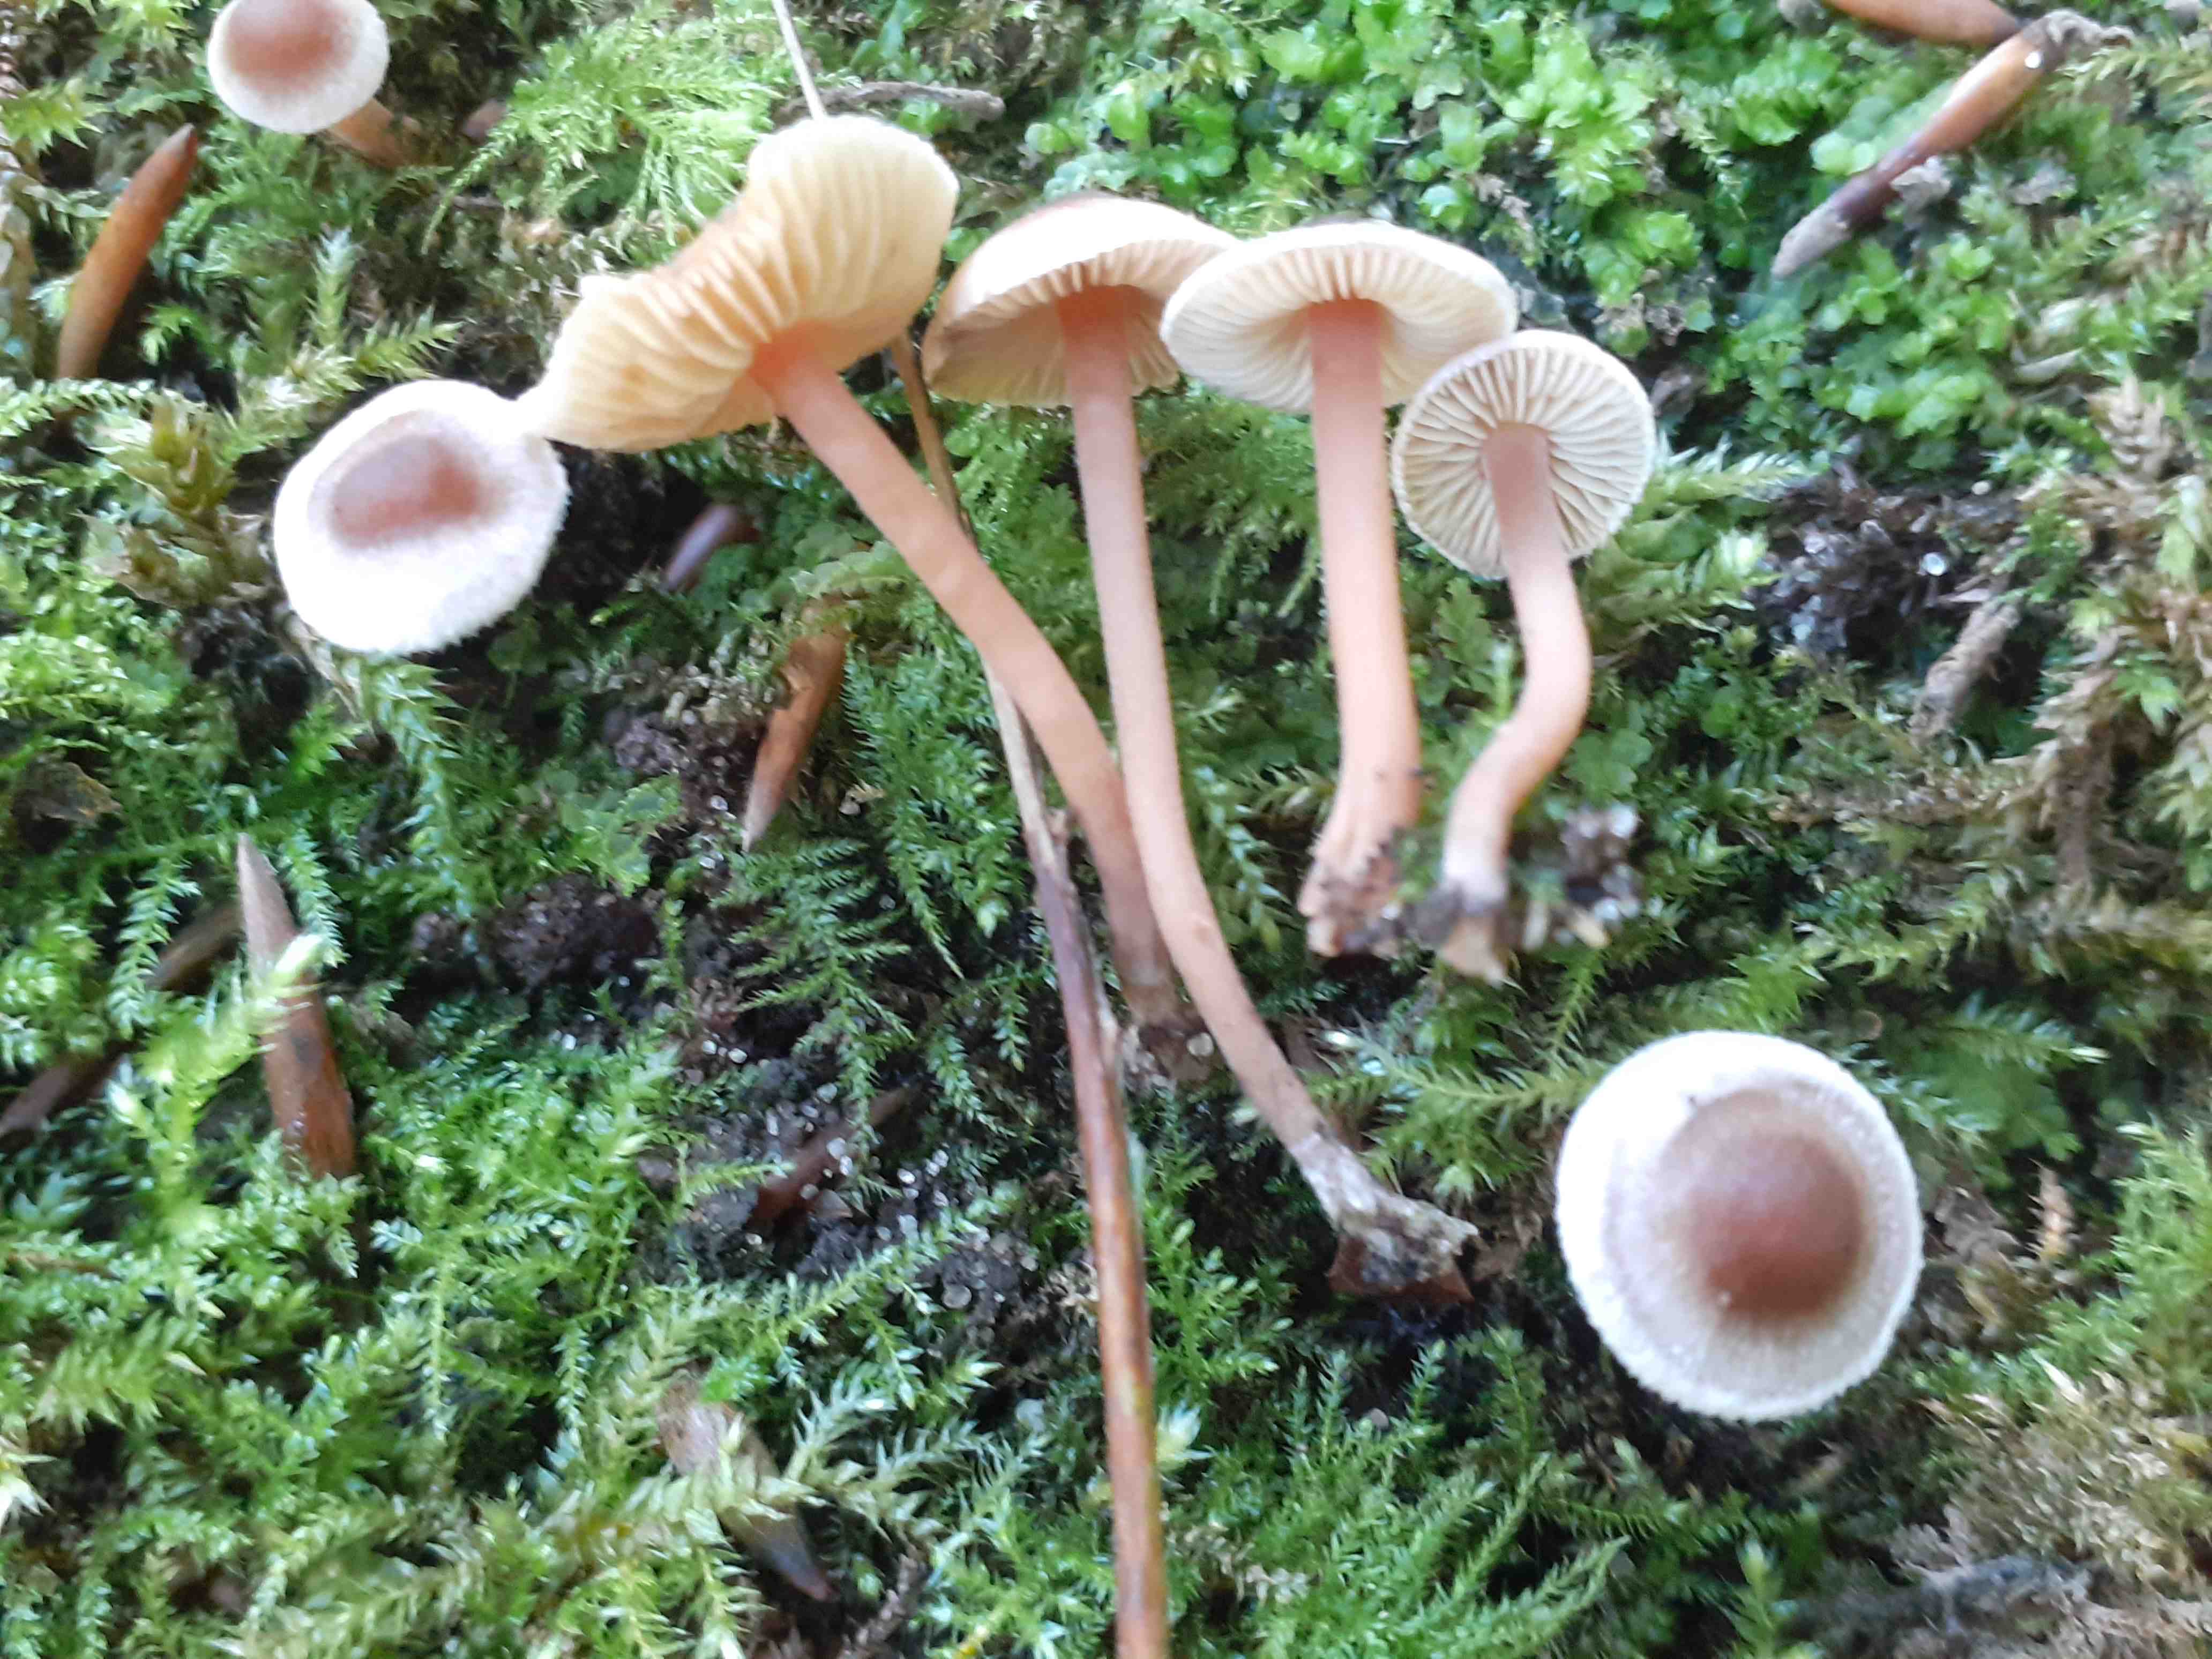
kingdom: Fungi
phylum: Basidiomycota
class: Agaricomycetes
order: Agaricales
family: Inocybaceae
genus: Inocybe
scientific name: Inocybe petiginosa
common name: liden trævlhat
